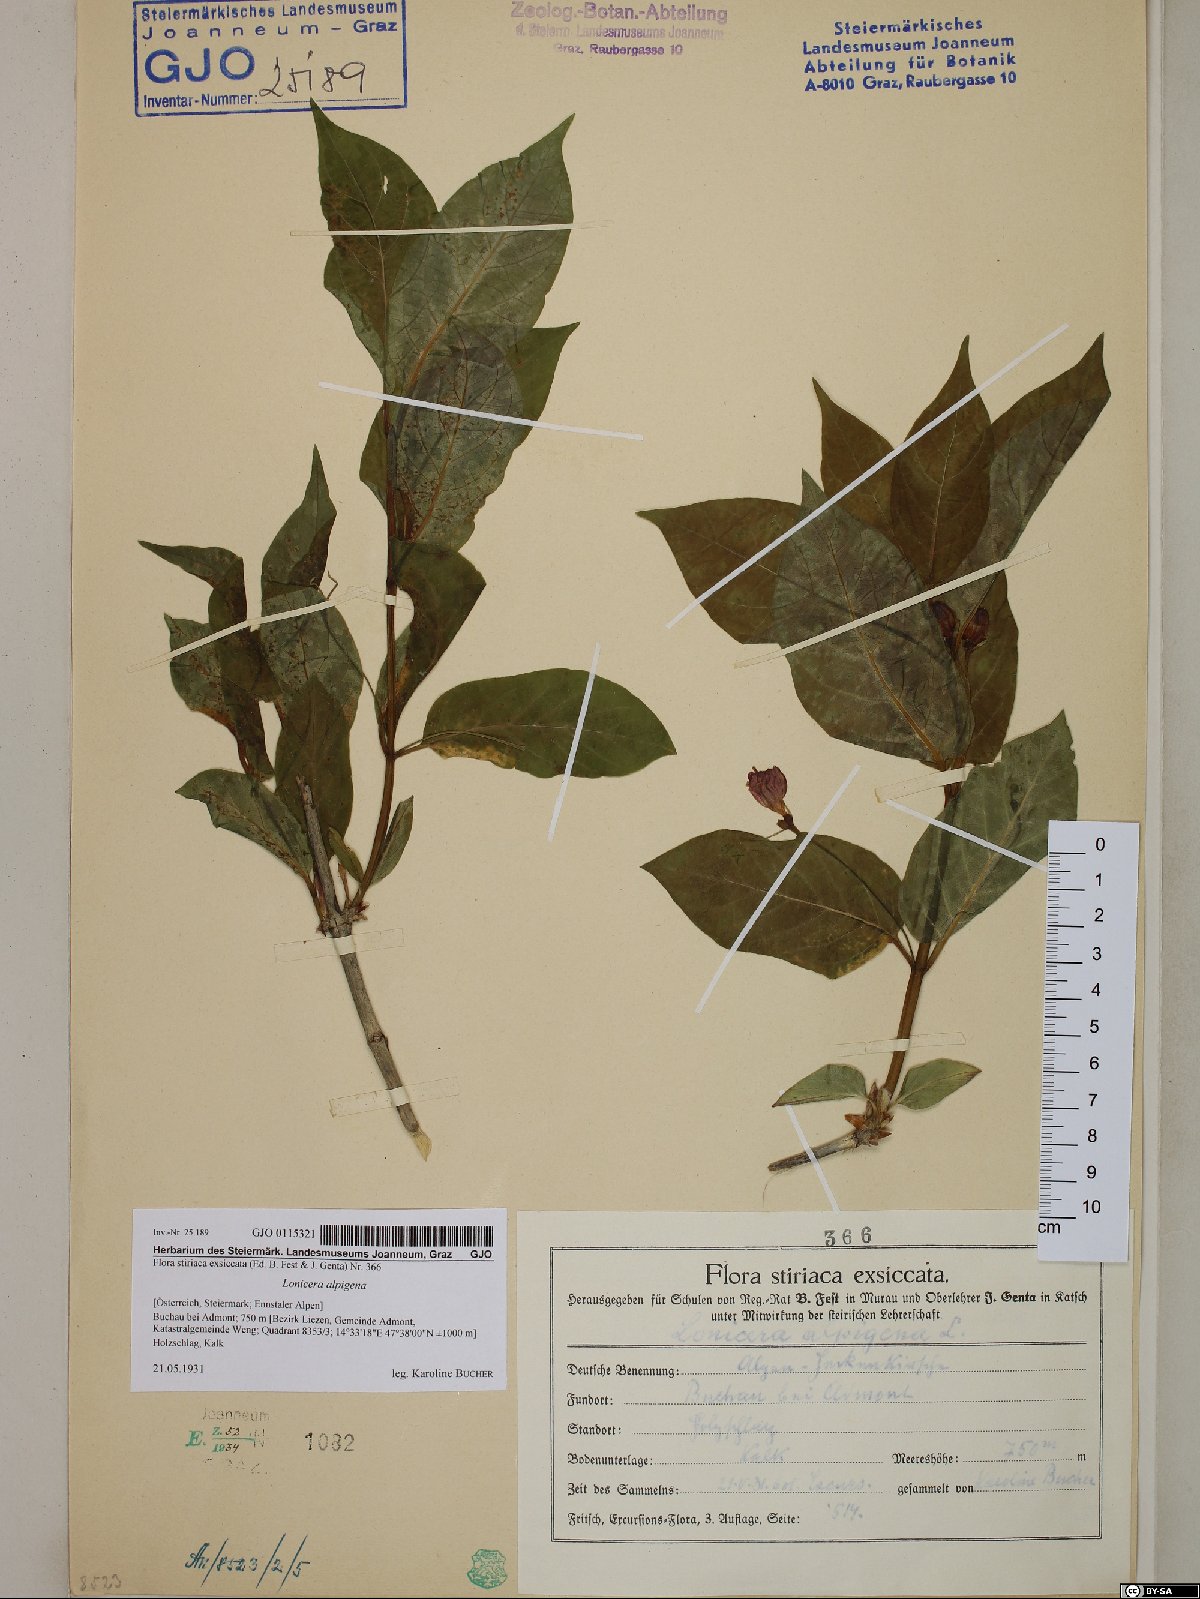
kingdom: Plantae
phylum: Tracheophyta
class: Magnoliopsida
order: Dipsacales
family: Caprifoliaceae
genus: Lonicera
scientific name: Lonicera alpigena
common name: Alpine honeysuckle
